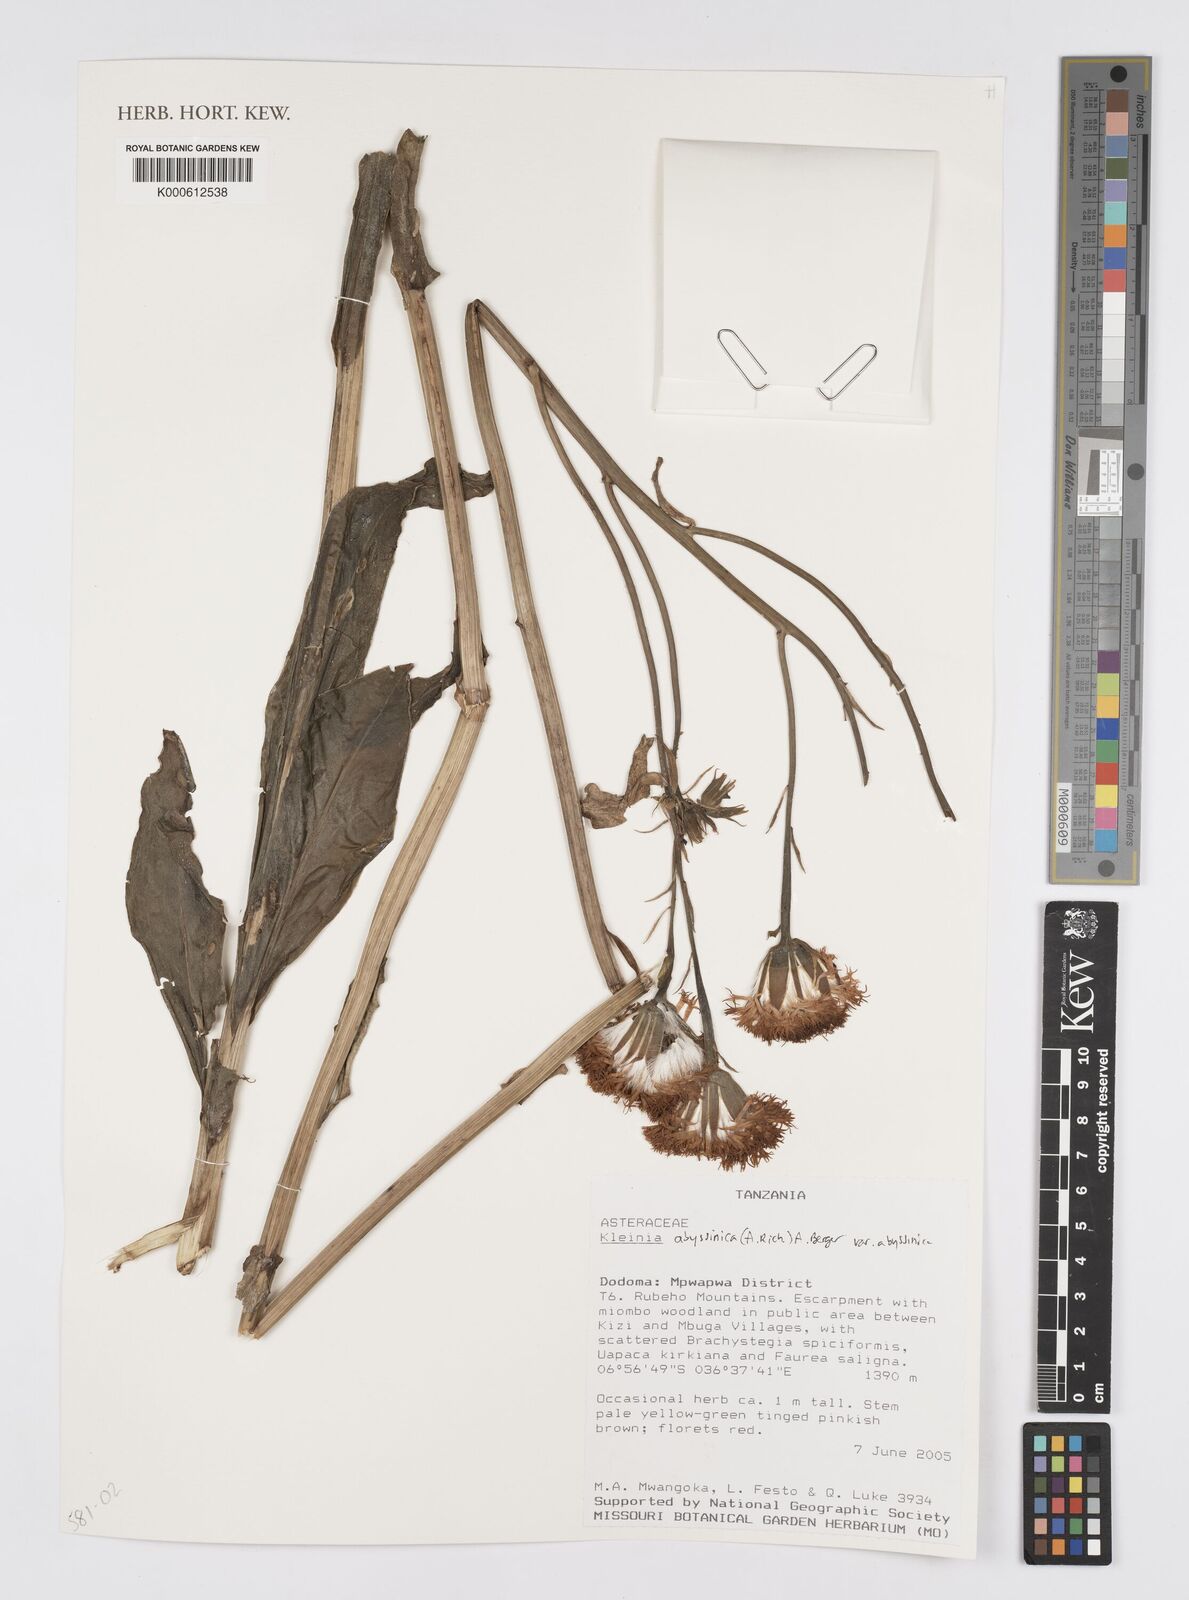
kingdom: Plantae
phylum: Tracheophyta
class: Magnoliopsida
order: Asterales
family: Asteraceae
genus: Kleinia
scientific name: Kleinia abyssinica
